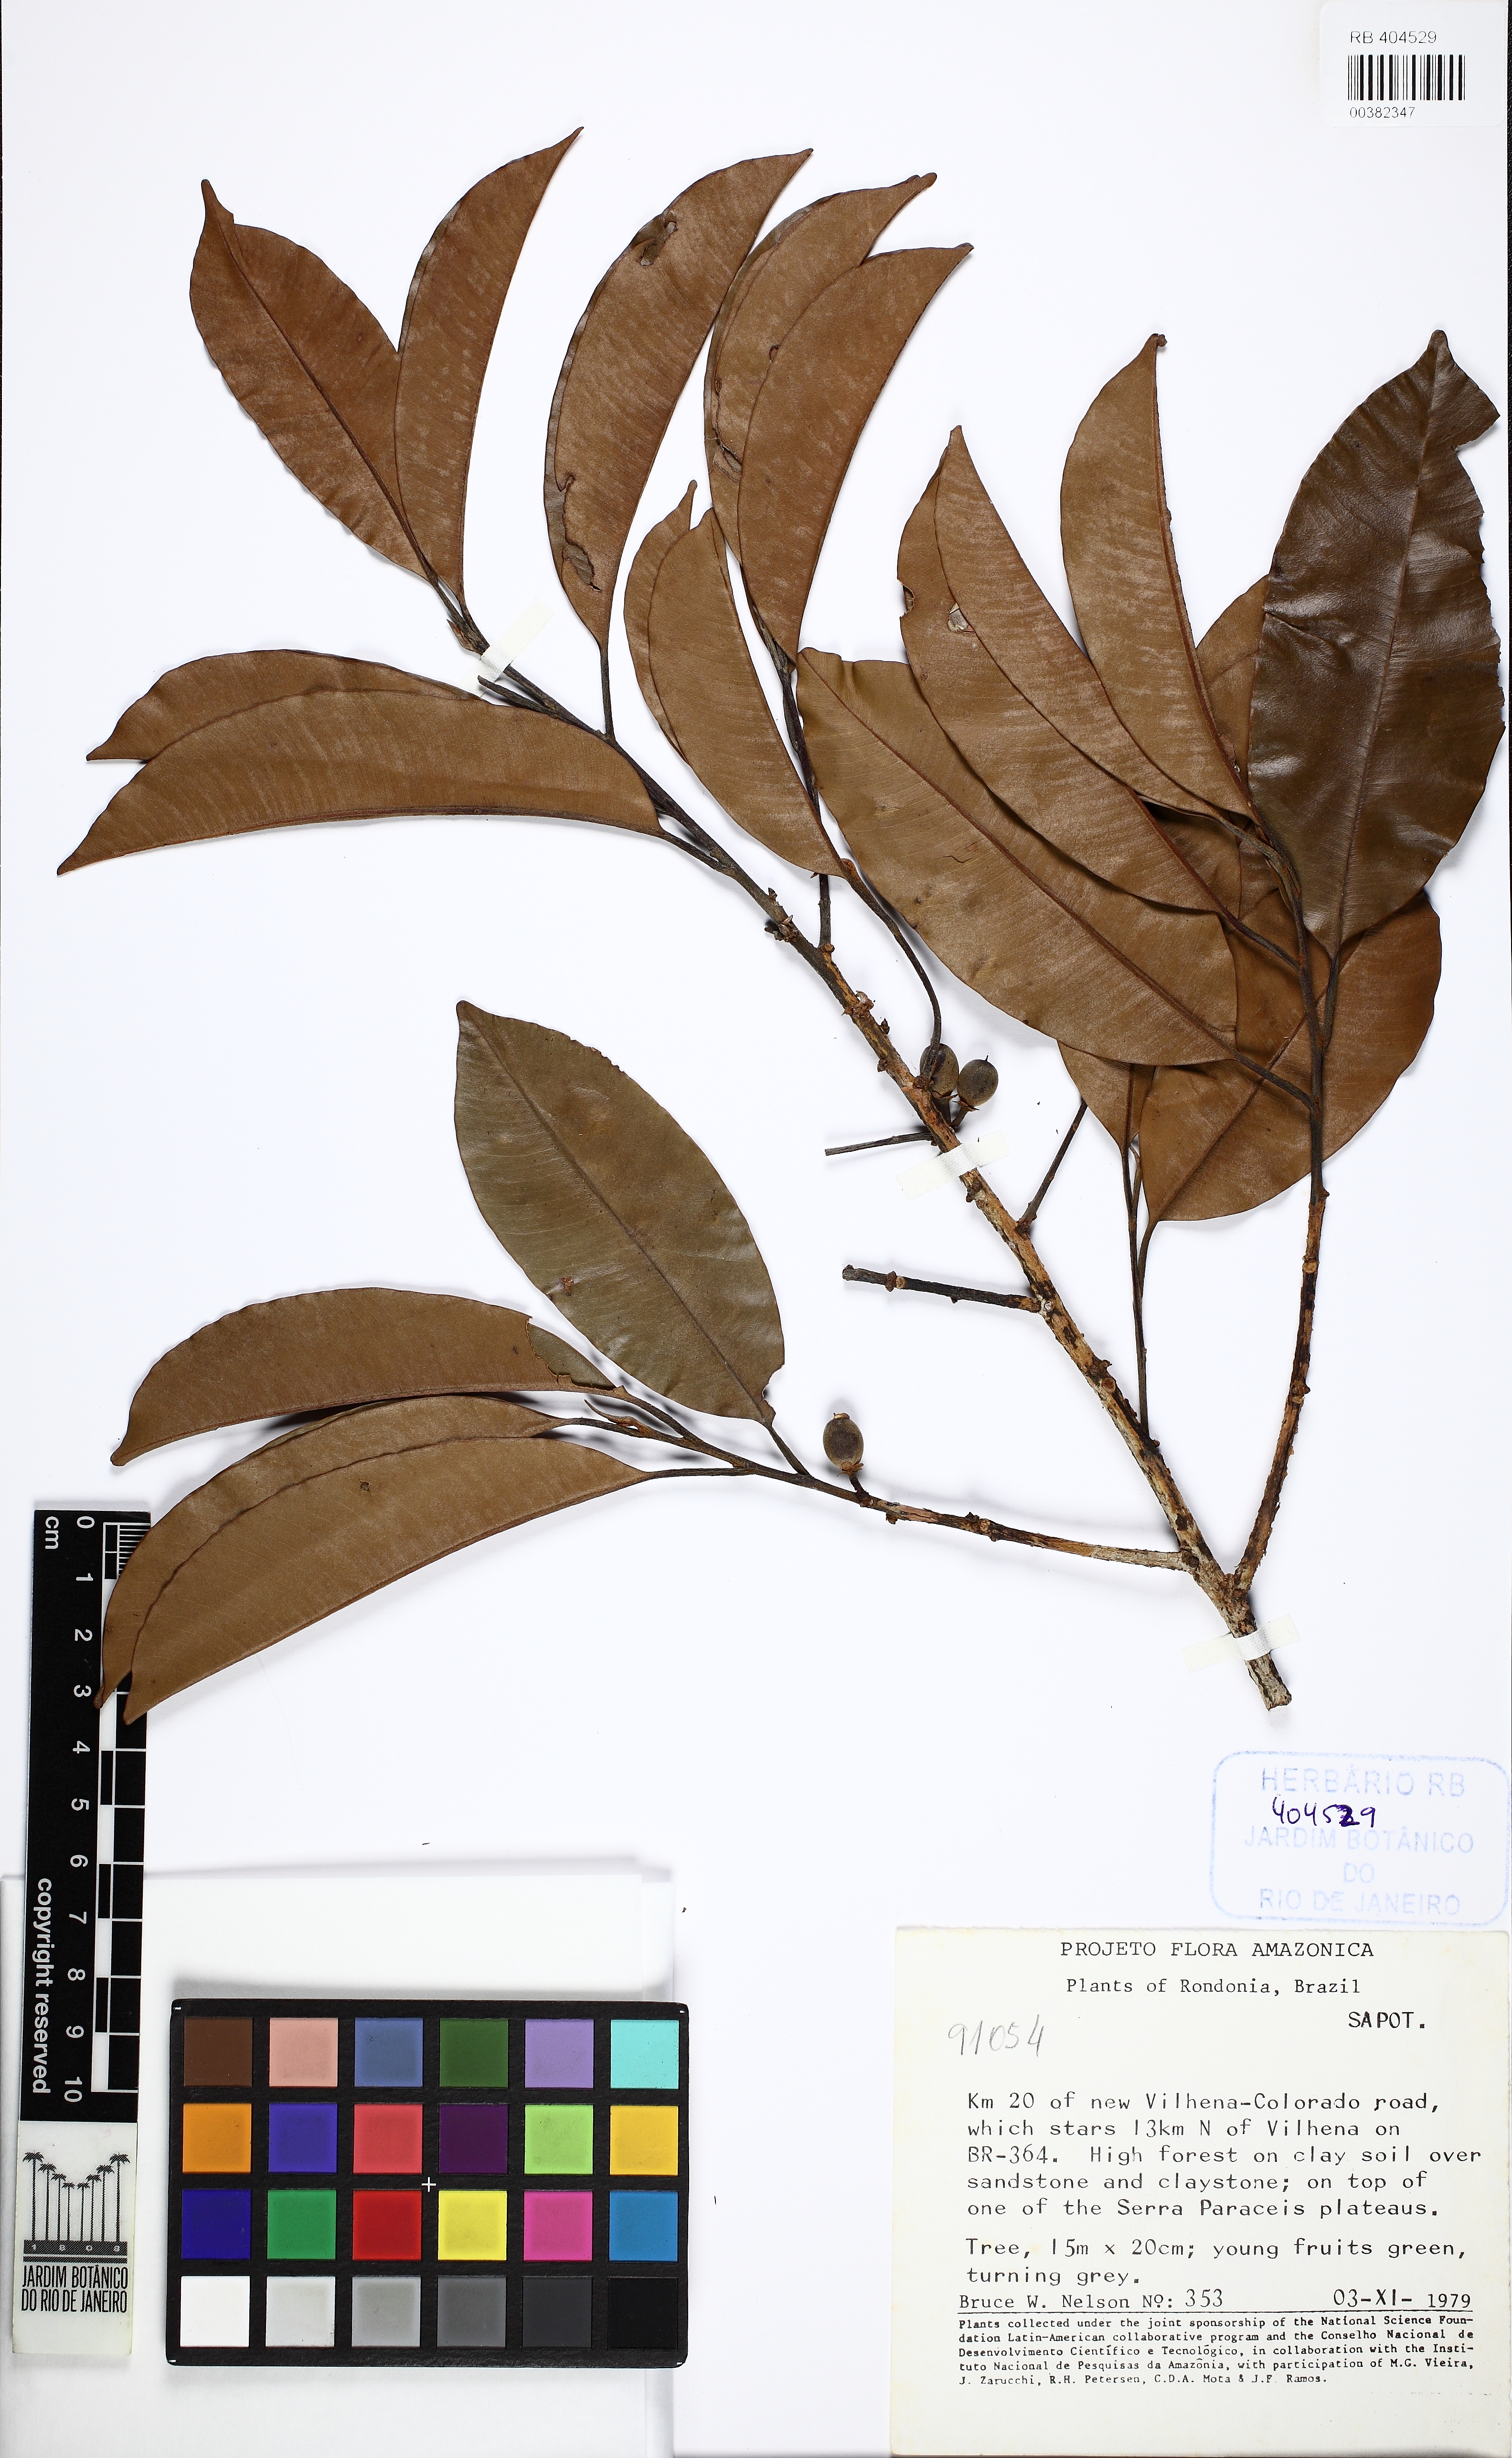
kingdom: Plantae
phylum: Tracheophyta
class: Magnoliopsida
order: Ericales
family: Sapotaceae
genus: Micropholis
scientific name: Micropholis
